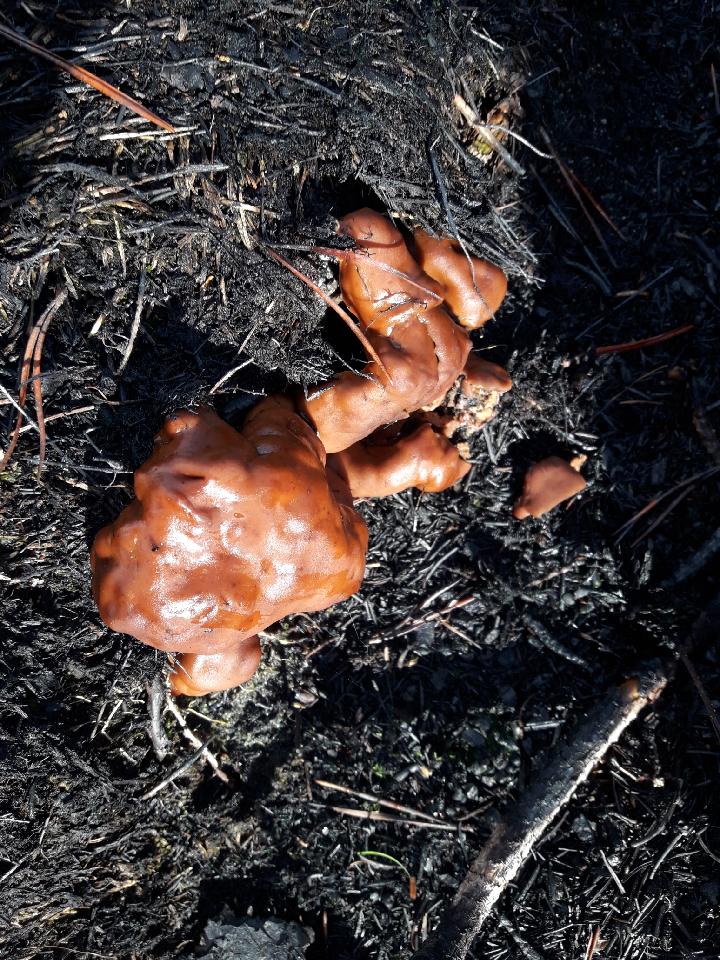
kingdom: Fungi
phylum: Ascomycota
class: Pezizomycetes
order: Pezizales
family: Rhizinaceae
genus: Rhizina
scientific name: Rhizina undulata
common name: rodmorkel
